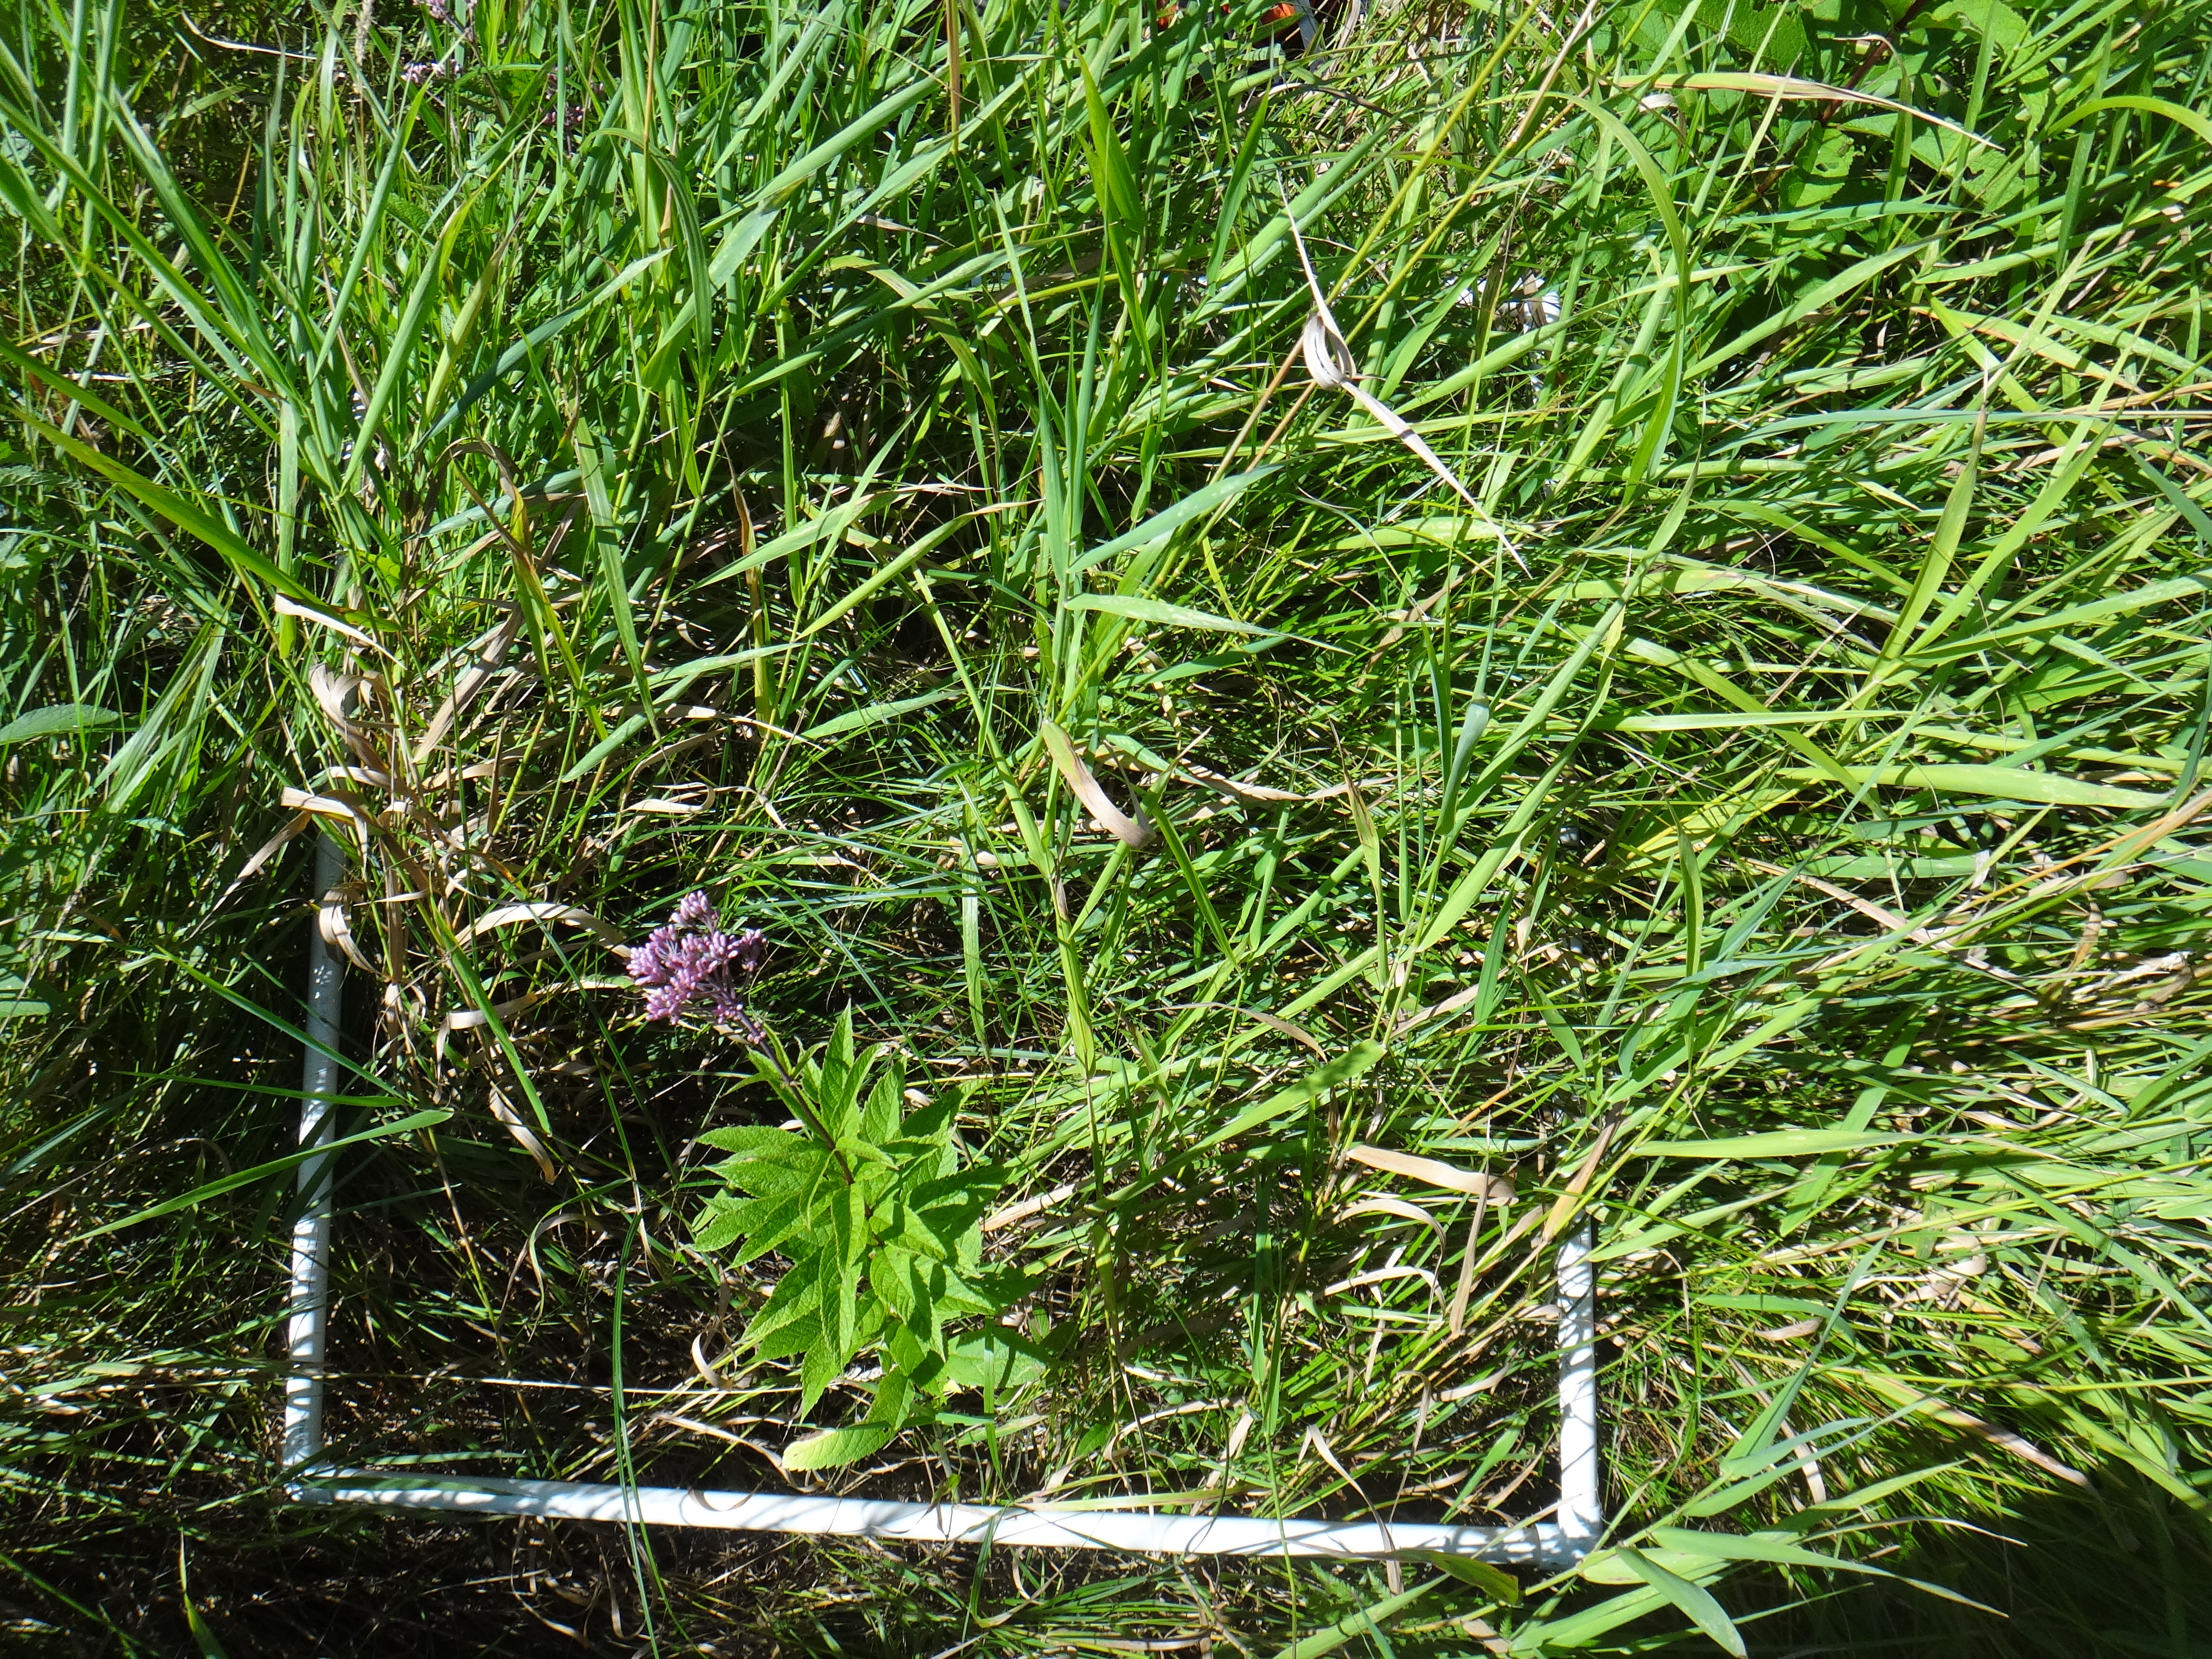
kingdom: Plantae
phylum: Tracheophyta
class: Magnoliopsida
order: Asterales
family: Asteraceae
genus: Solidago
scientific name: Solidago canadensis
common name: Canada goldenrod
